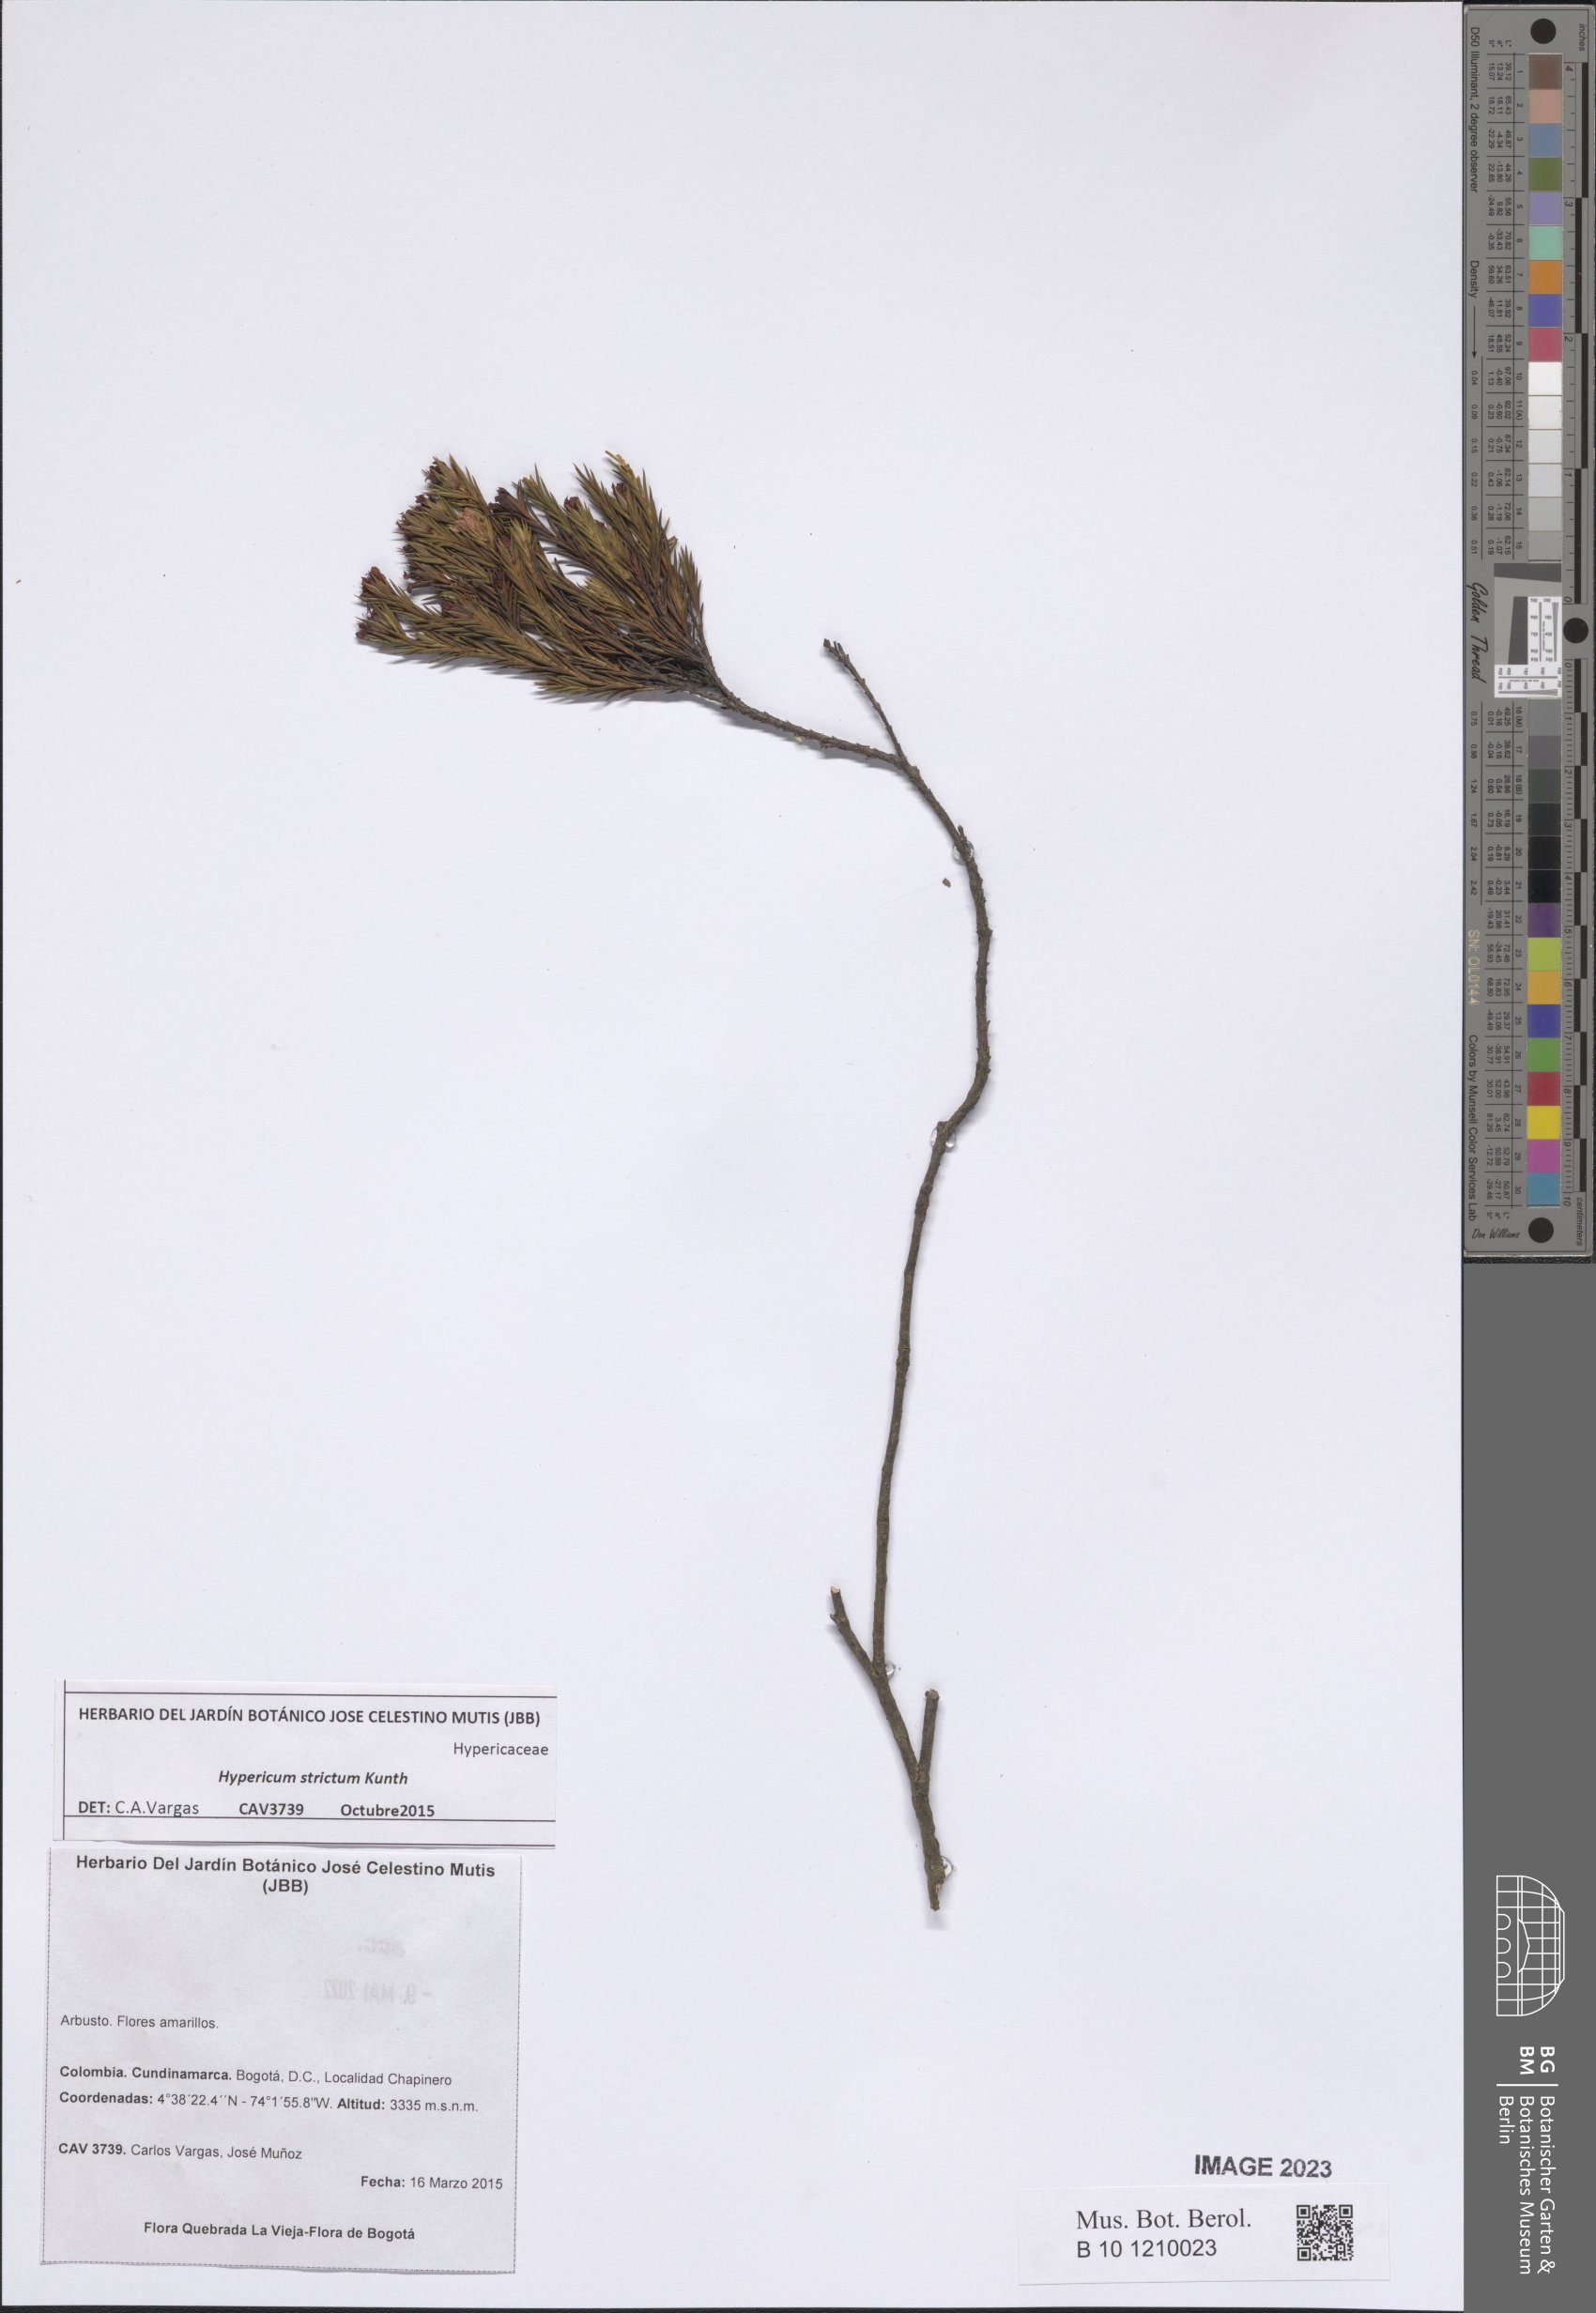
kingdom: Plantae
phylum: Tracheophyta
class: Magnoliopsida
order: Malpighiales
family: Hypericaceae
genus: Hypericum
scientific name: Hypericum strictum
